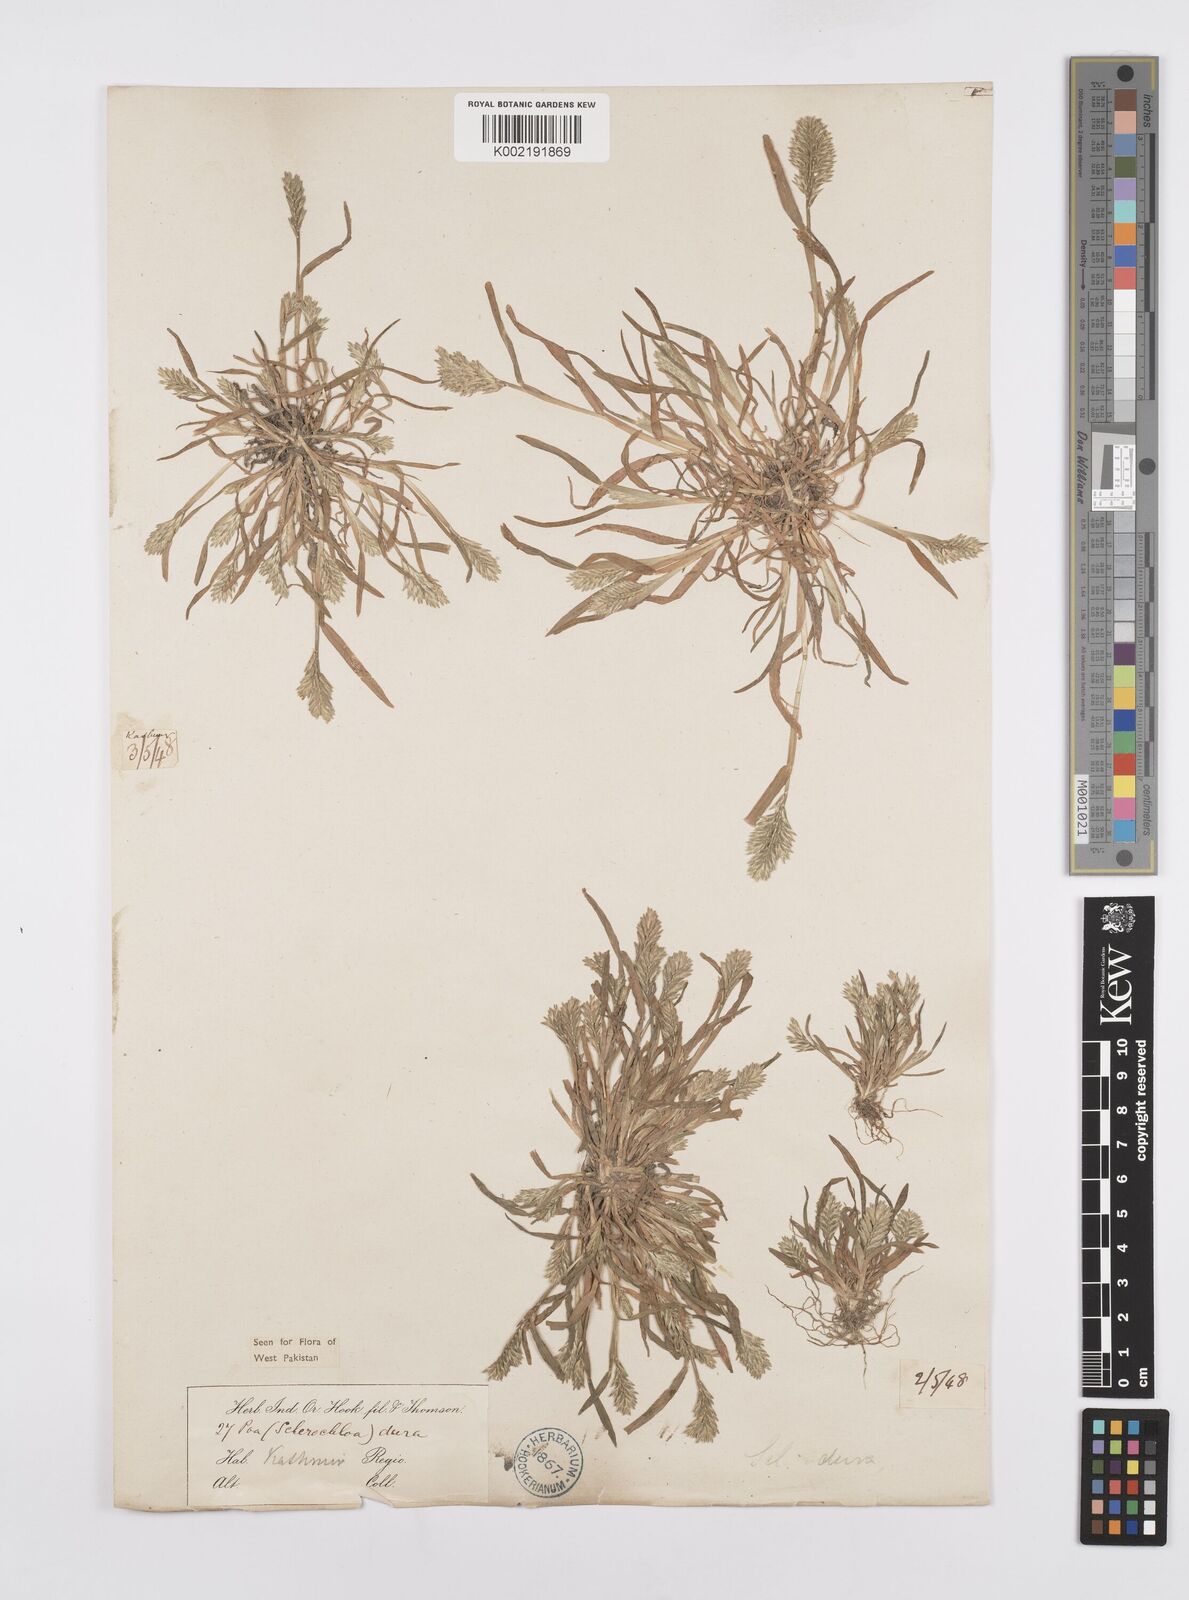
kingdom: Plantae
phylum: Tracheophyta
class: Liliopsida
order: Poales
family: Poaceae
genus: Sclerochloa
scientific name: Sclerochloa dura
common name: Common hardgrass
